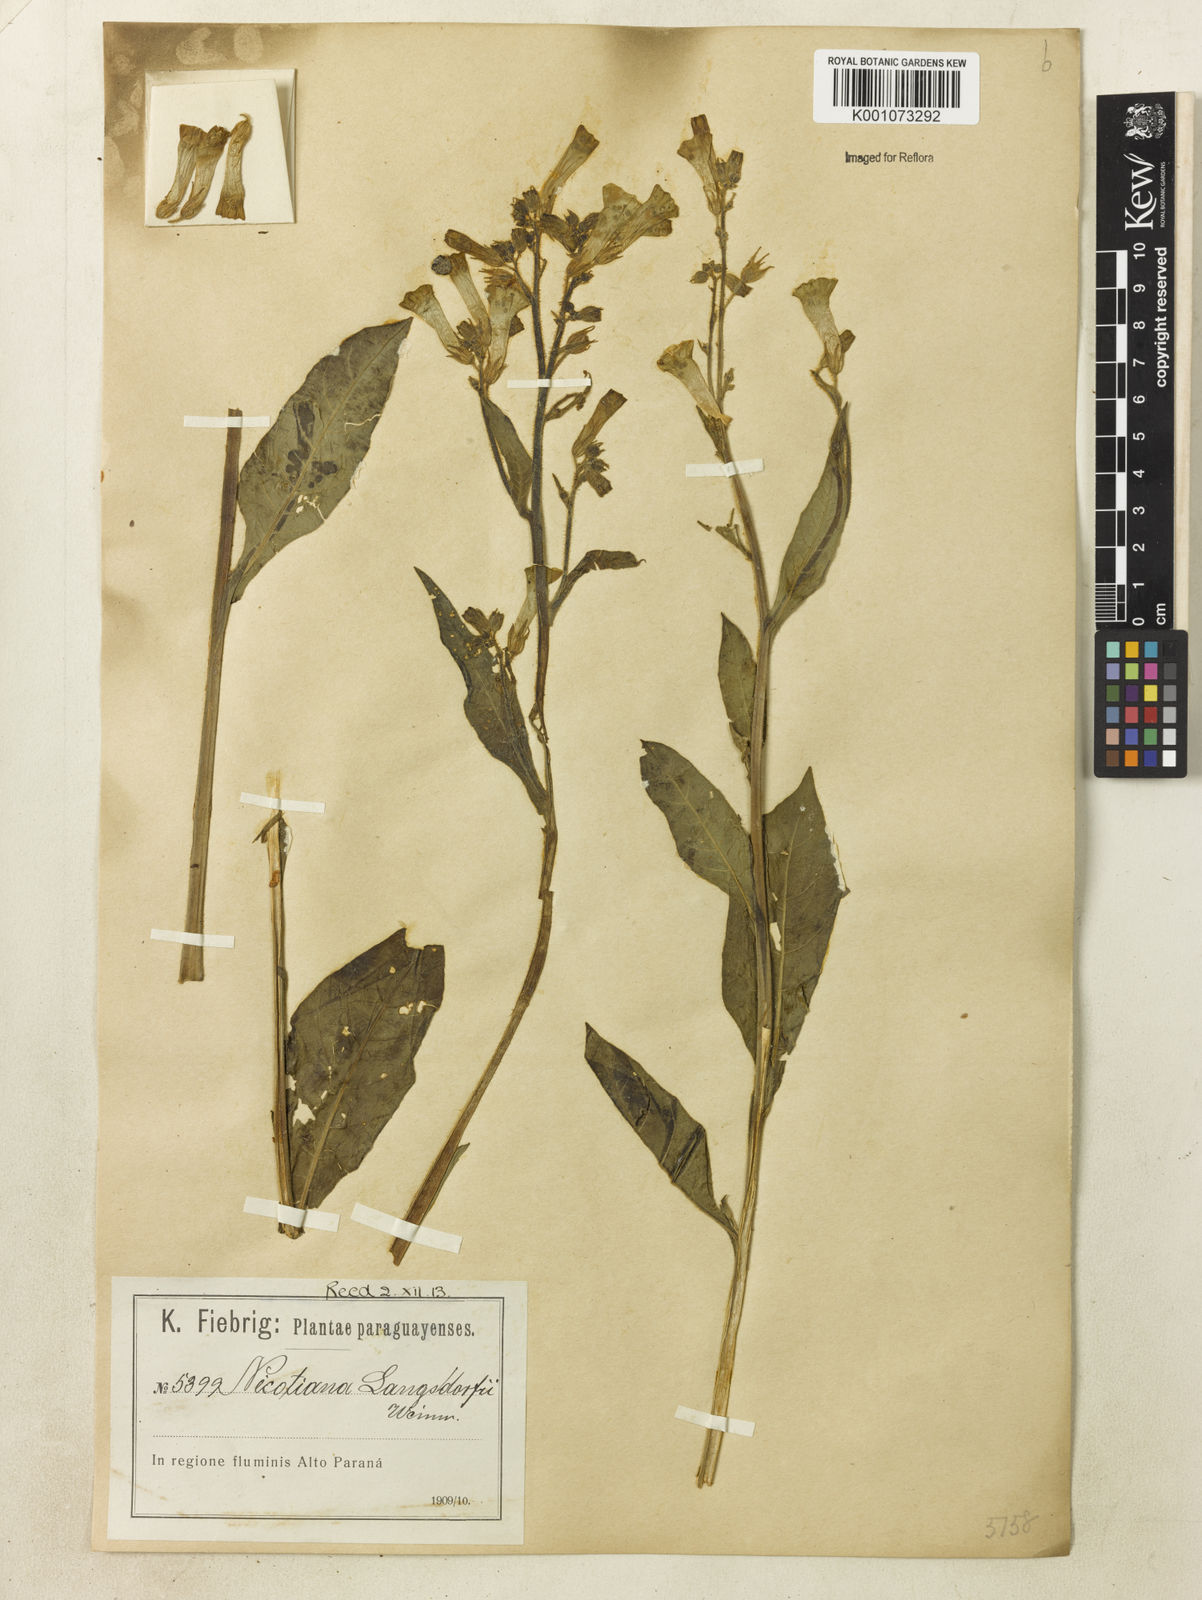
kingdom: Plantae
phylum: Tracheophyta
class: Magnoliopsida
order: Solanales
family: Solanaceae
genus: Nicotiana
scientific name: Nicotiana
